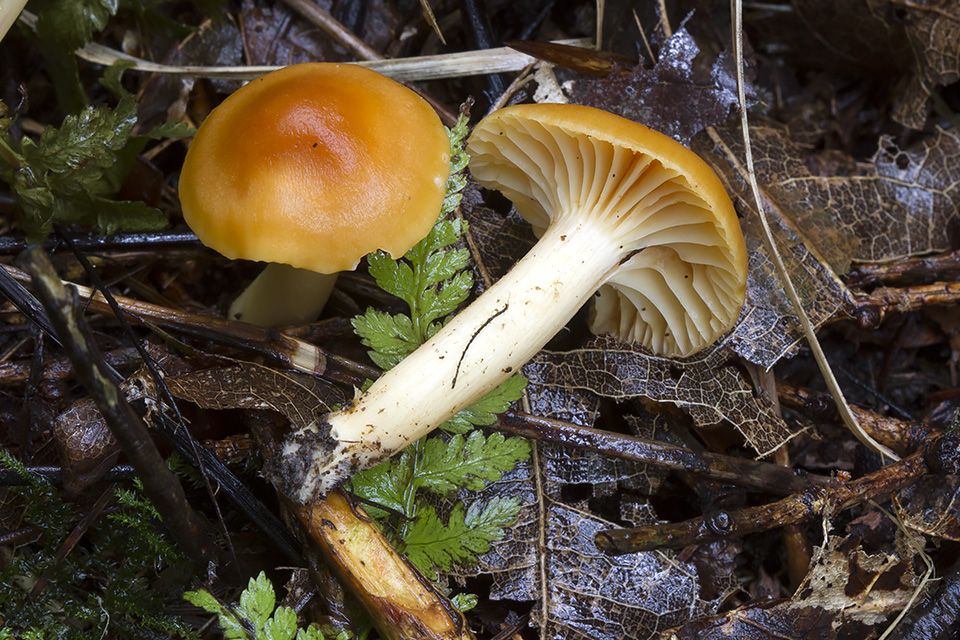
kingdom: Fungi
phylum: Basidiomycota
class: Agaricomycetes
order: Agaricales
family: Hygrophoraceae
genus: Cuphophyllus
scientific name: Cuphophyllus pratensis
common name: eng-vokshat
